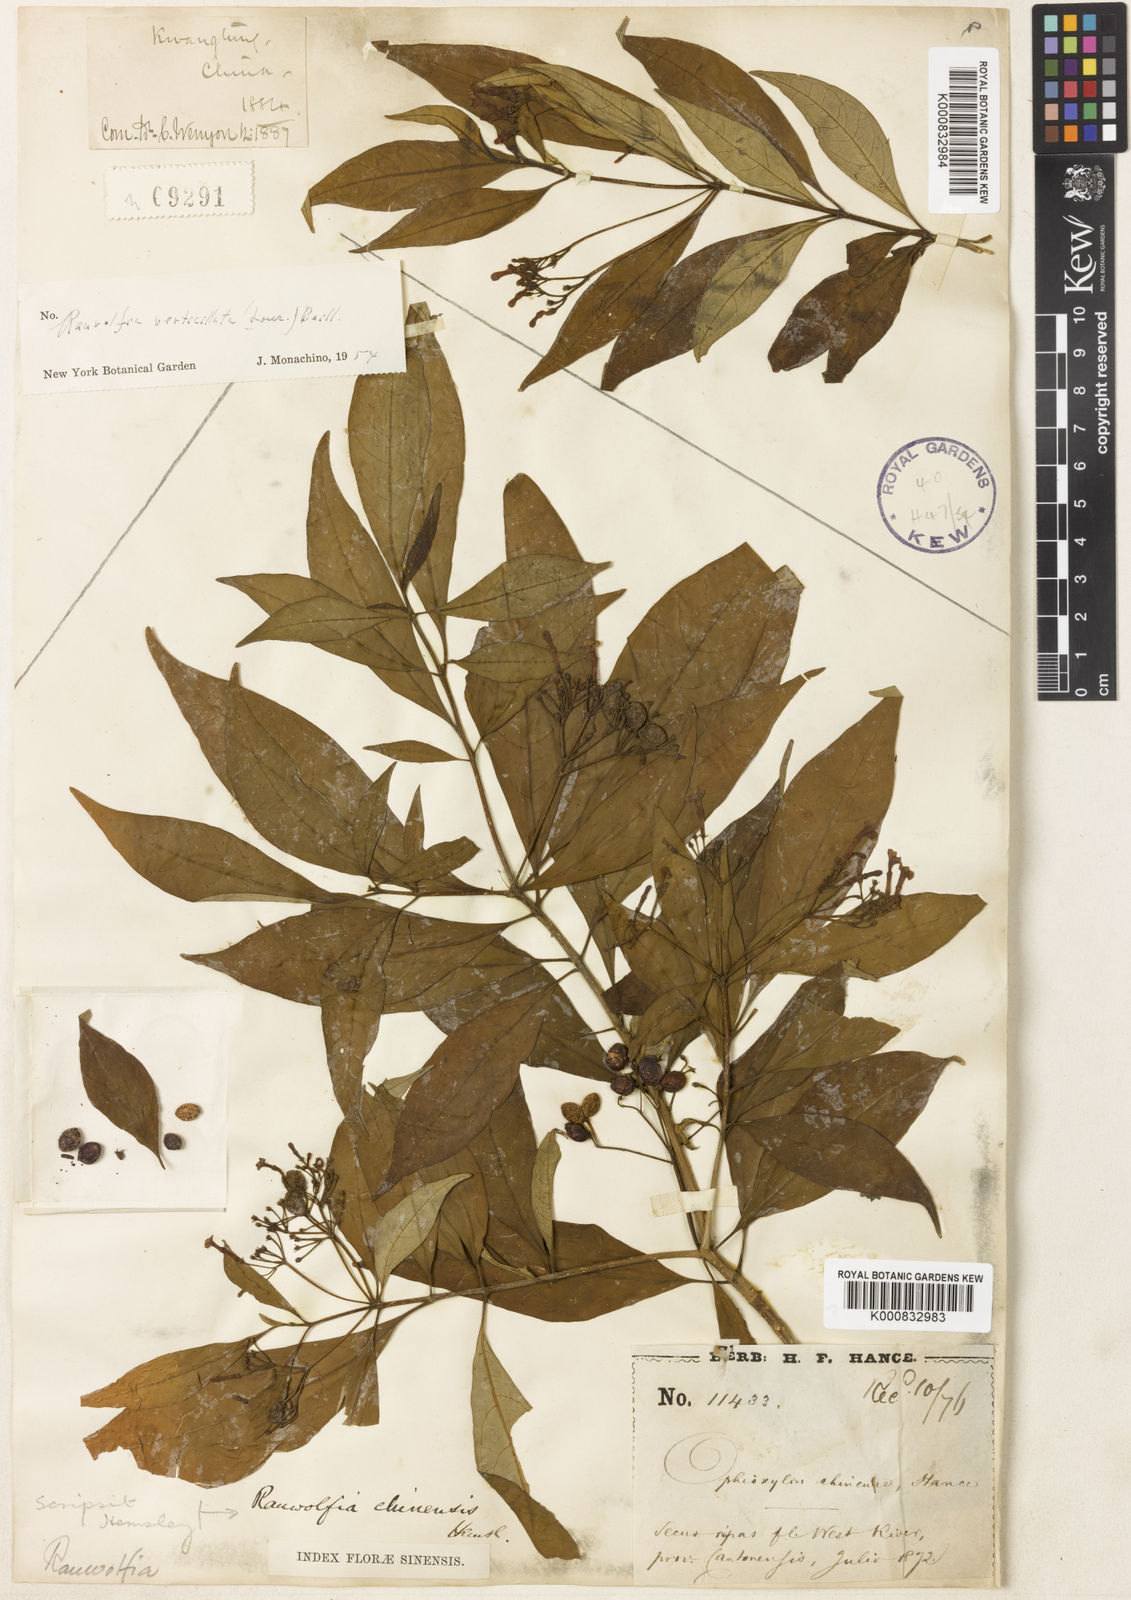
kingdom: Plantae
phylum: Tracheophyta
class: Magnoliopsida
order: Gentianales
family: Apocynaceae
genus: Rauvolfia
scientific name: Rauvolfia verticillata
